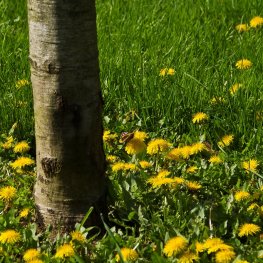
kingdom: Animalia
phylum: Arthropoda
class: Insecta
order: Lepidoptera
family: Nymphalidae
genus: Vanessa
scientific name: Vanessa atalanta
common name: Red Admiral
